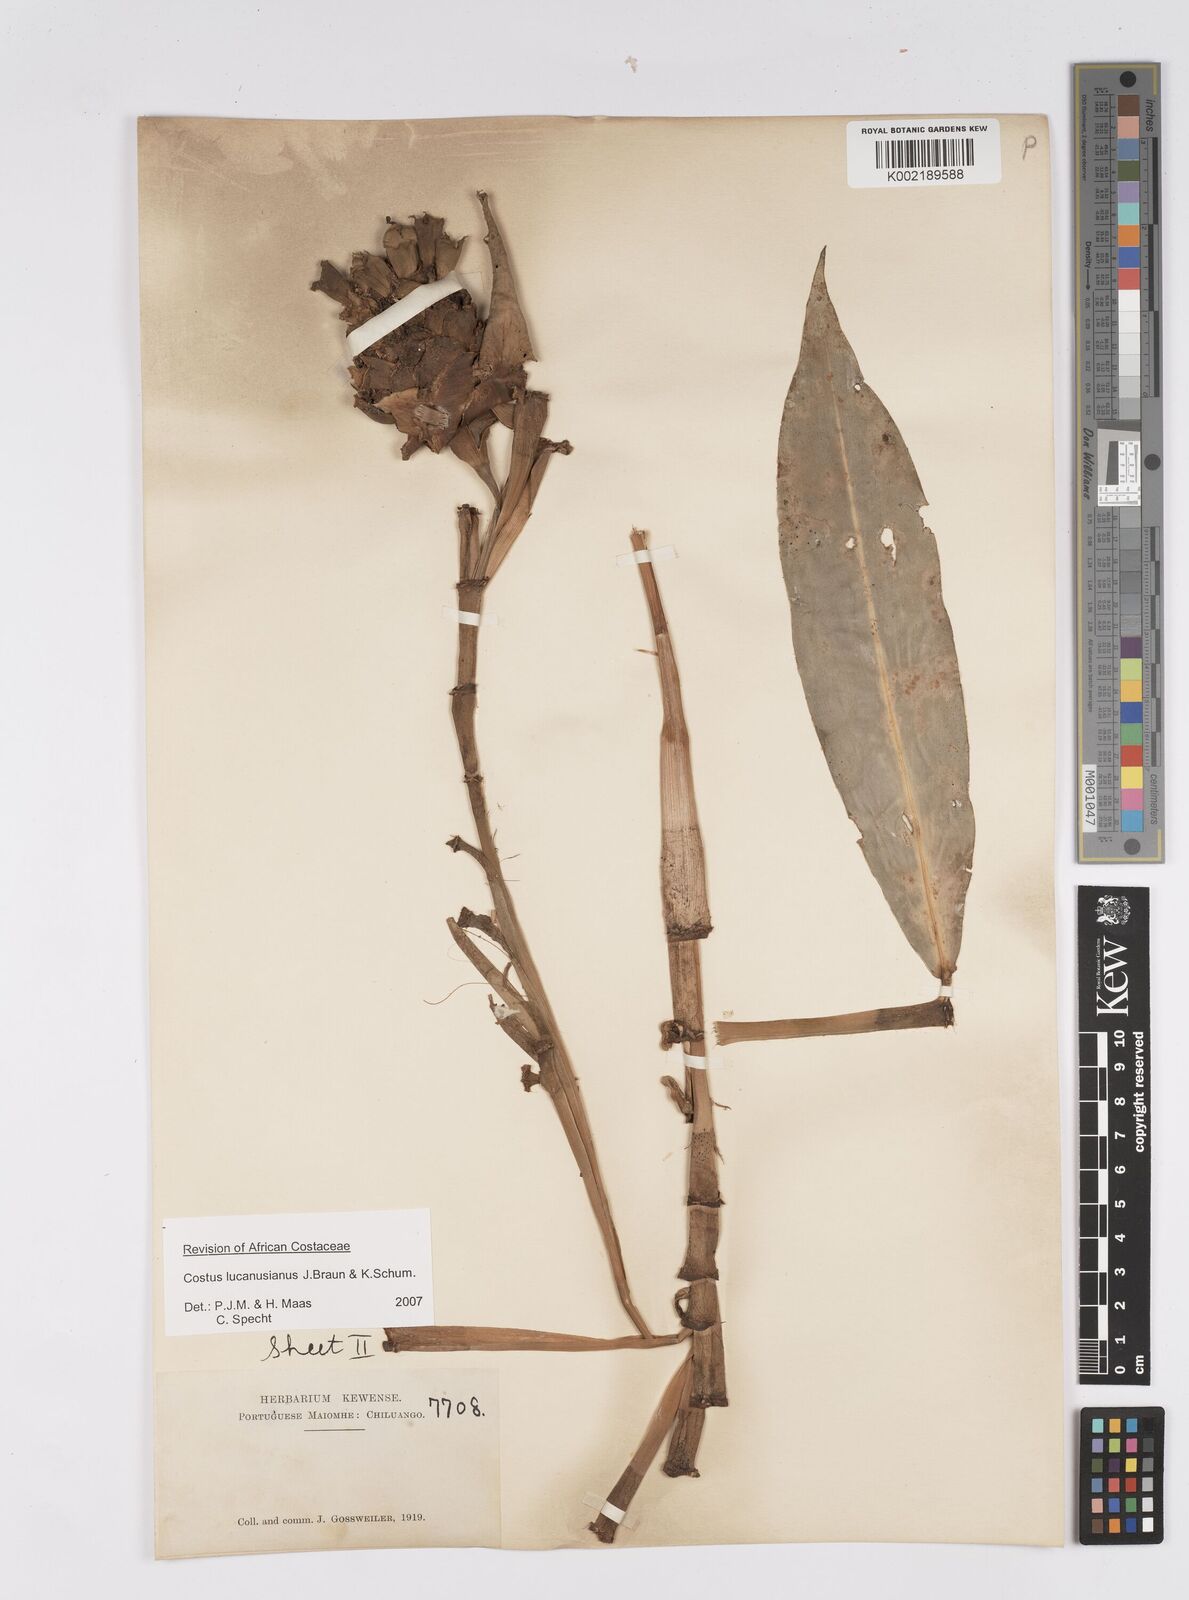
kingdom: Plantae
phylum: Tracheophyta
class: Liliopsida
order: Zingiberales
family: Costaceae
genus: Costus
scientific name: Costus lucanusianus
